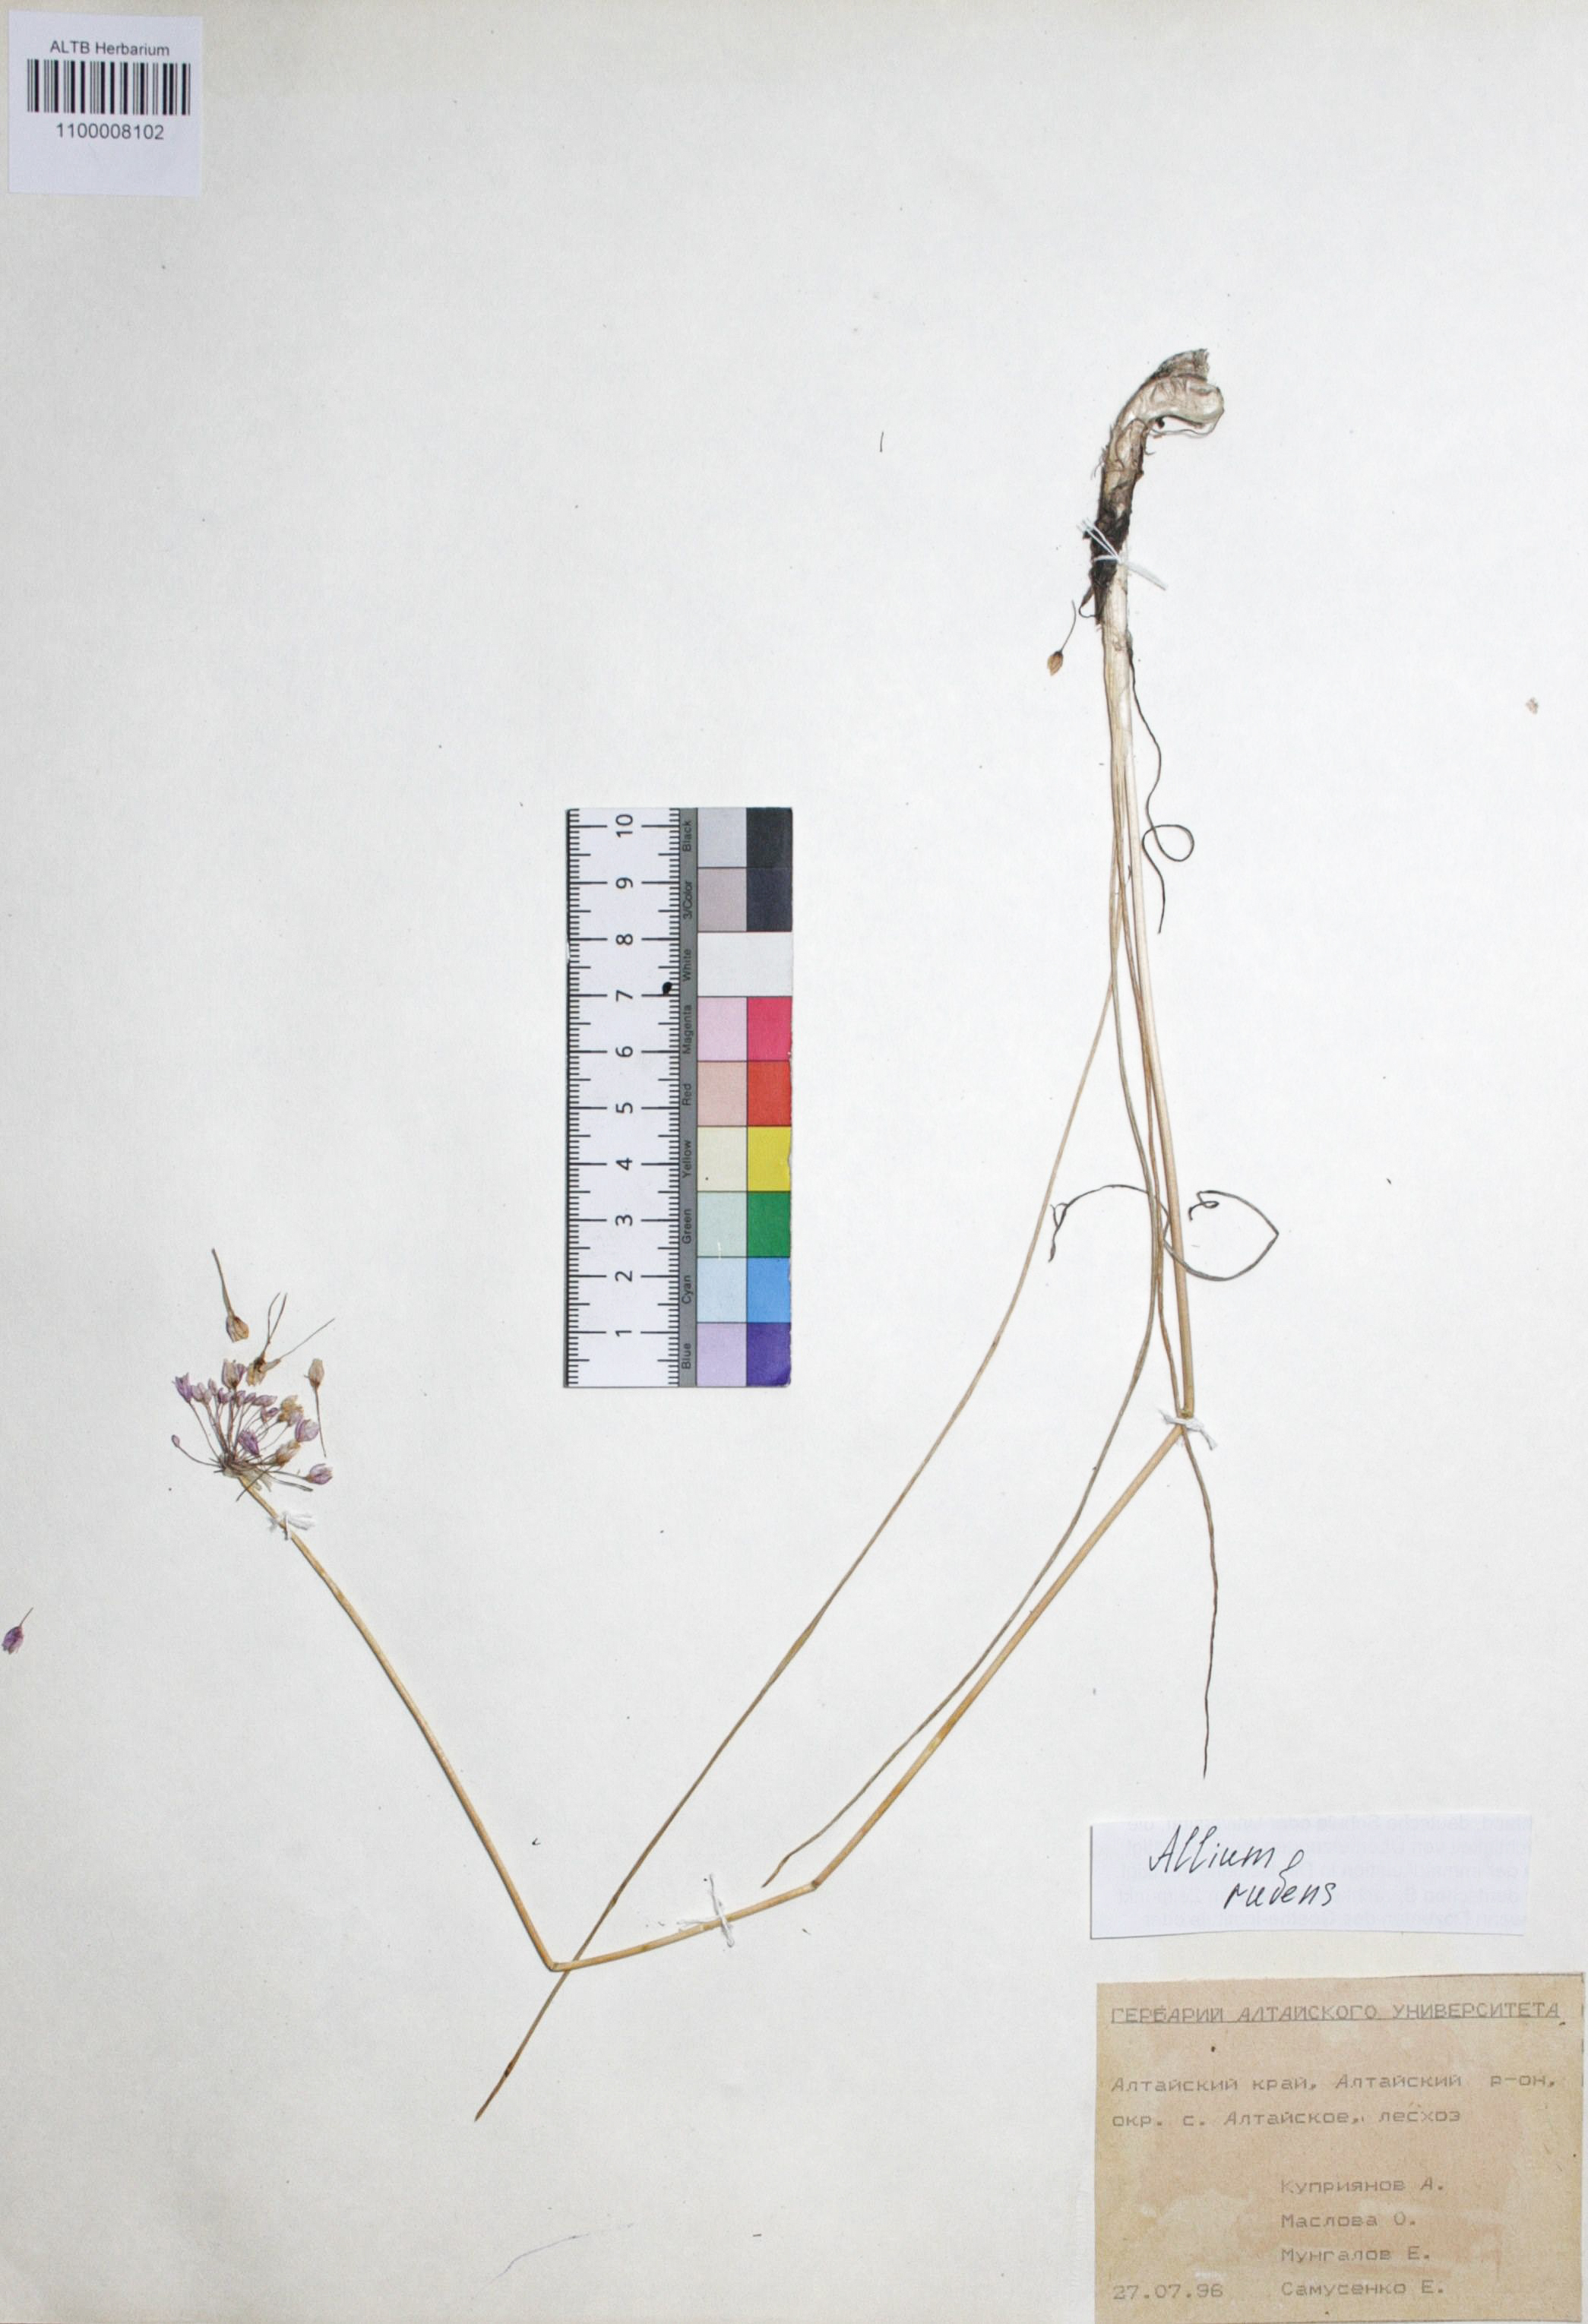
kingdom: Plantae
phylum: Tracheophyta
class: Liliopsida
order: Asparagales
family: Amaryllidaceae
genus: Allium
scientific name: Allium rubens
